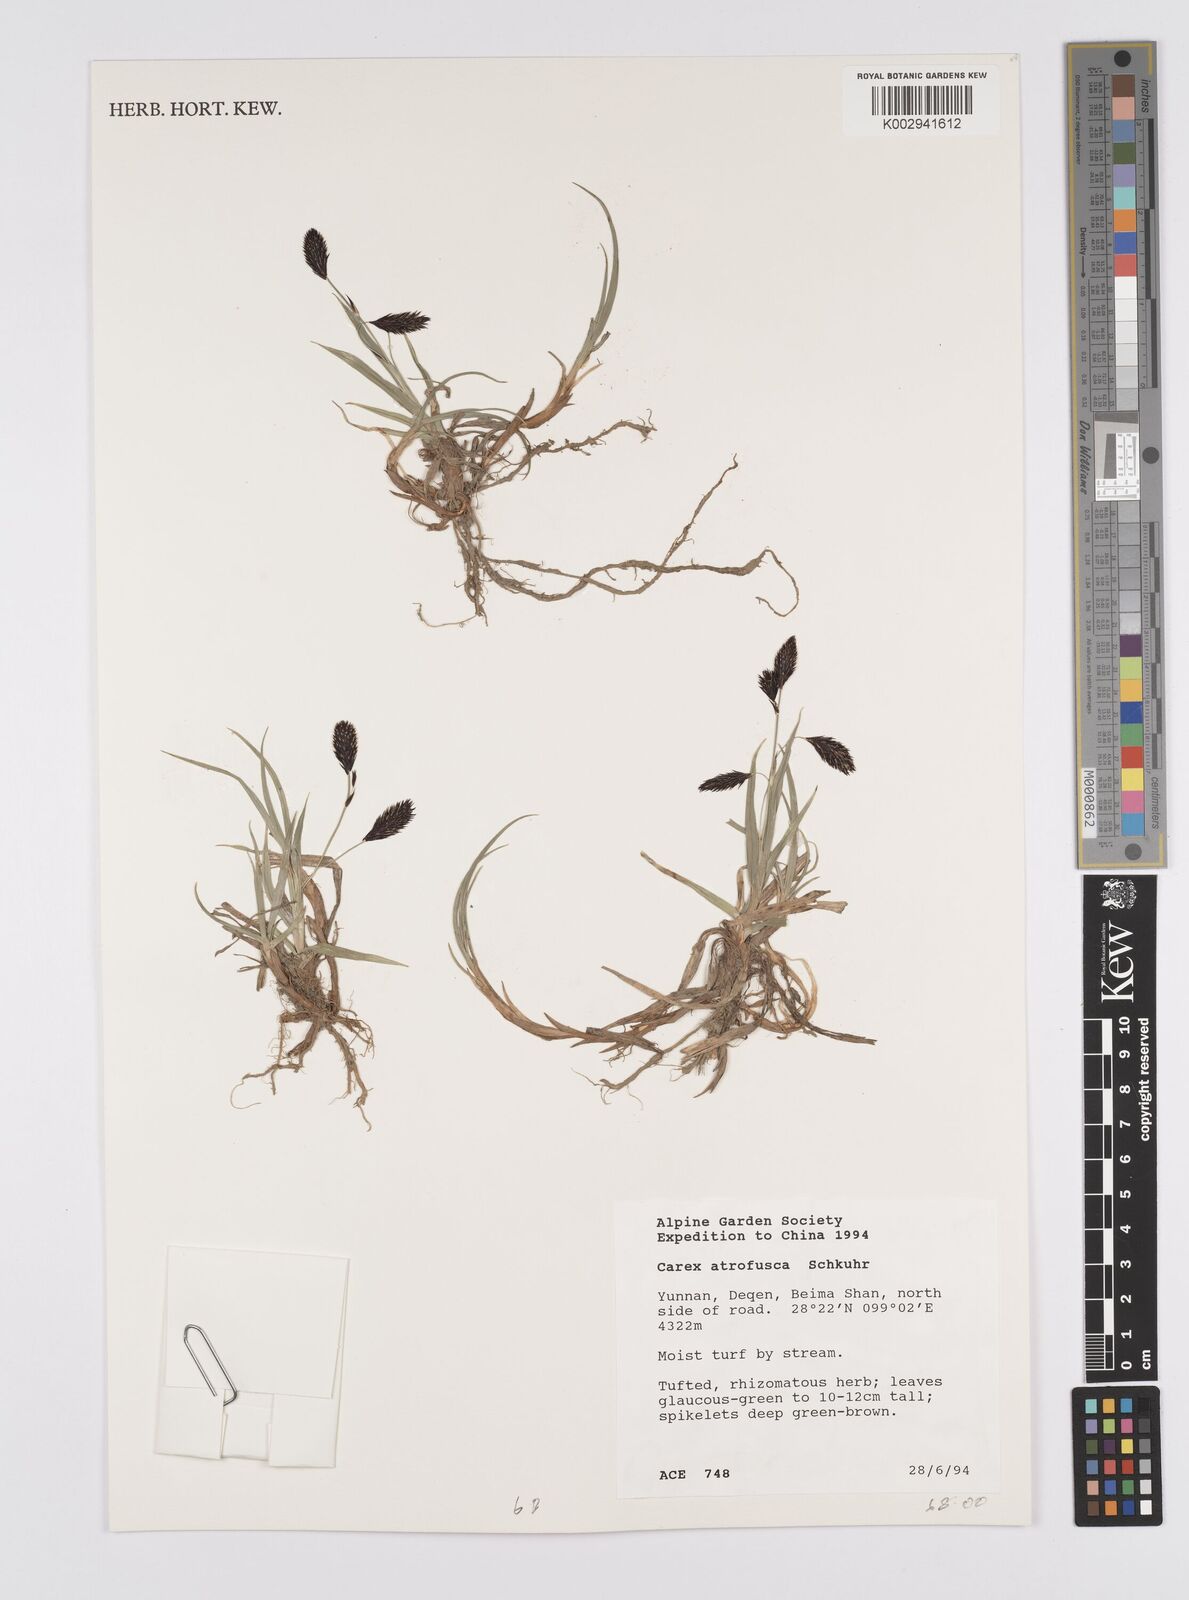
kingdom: Plantae
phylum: Tracheophyta
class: Liliopsida
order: Poales
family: Cyperaceae
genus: Carex
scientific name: Carex atrofusca
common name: Scorched alpine-sedge
